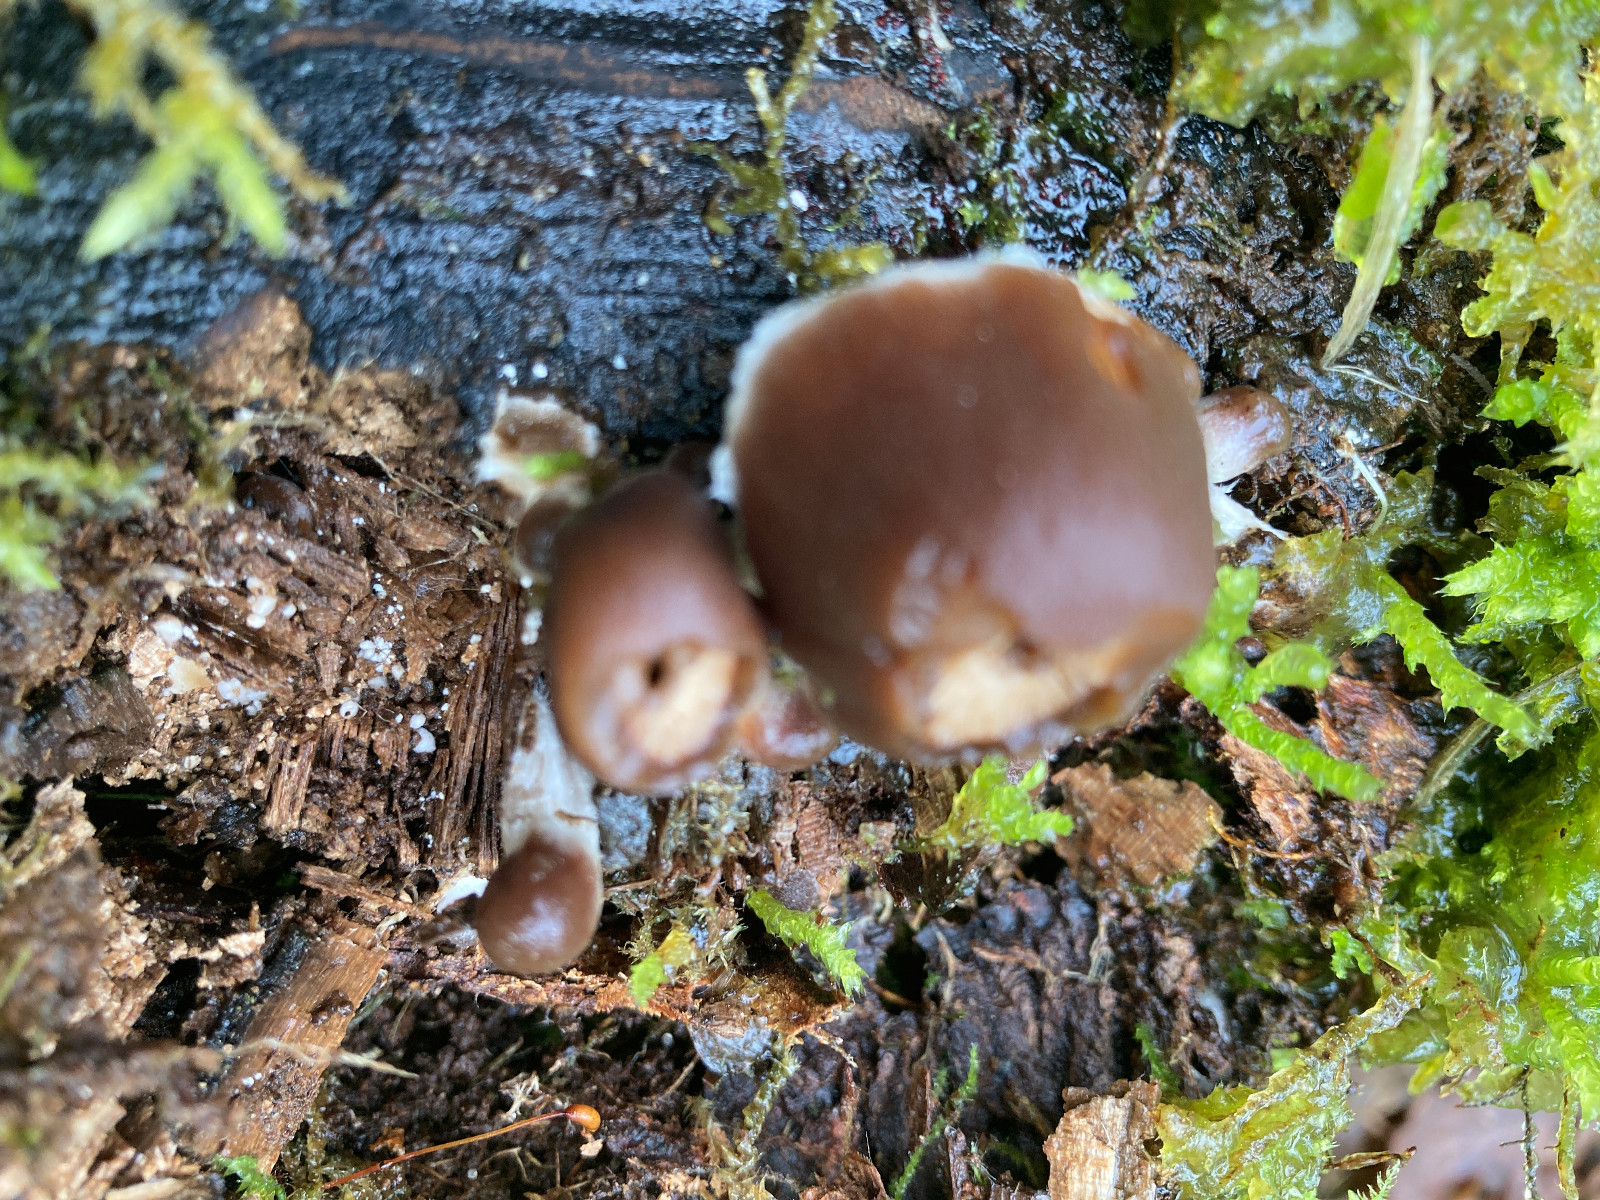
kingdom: Fungi
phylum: Basidiomycota
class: Agaricomycetes
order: Agaricales
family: Psathyrellaceae
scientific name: Psathyrellaceae
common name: mørkhatfamilien
